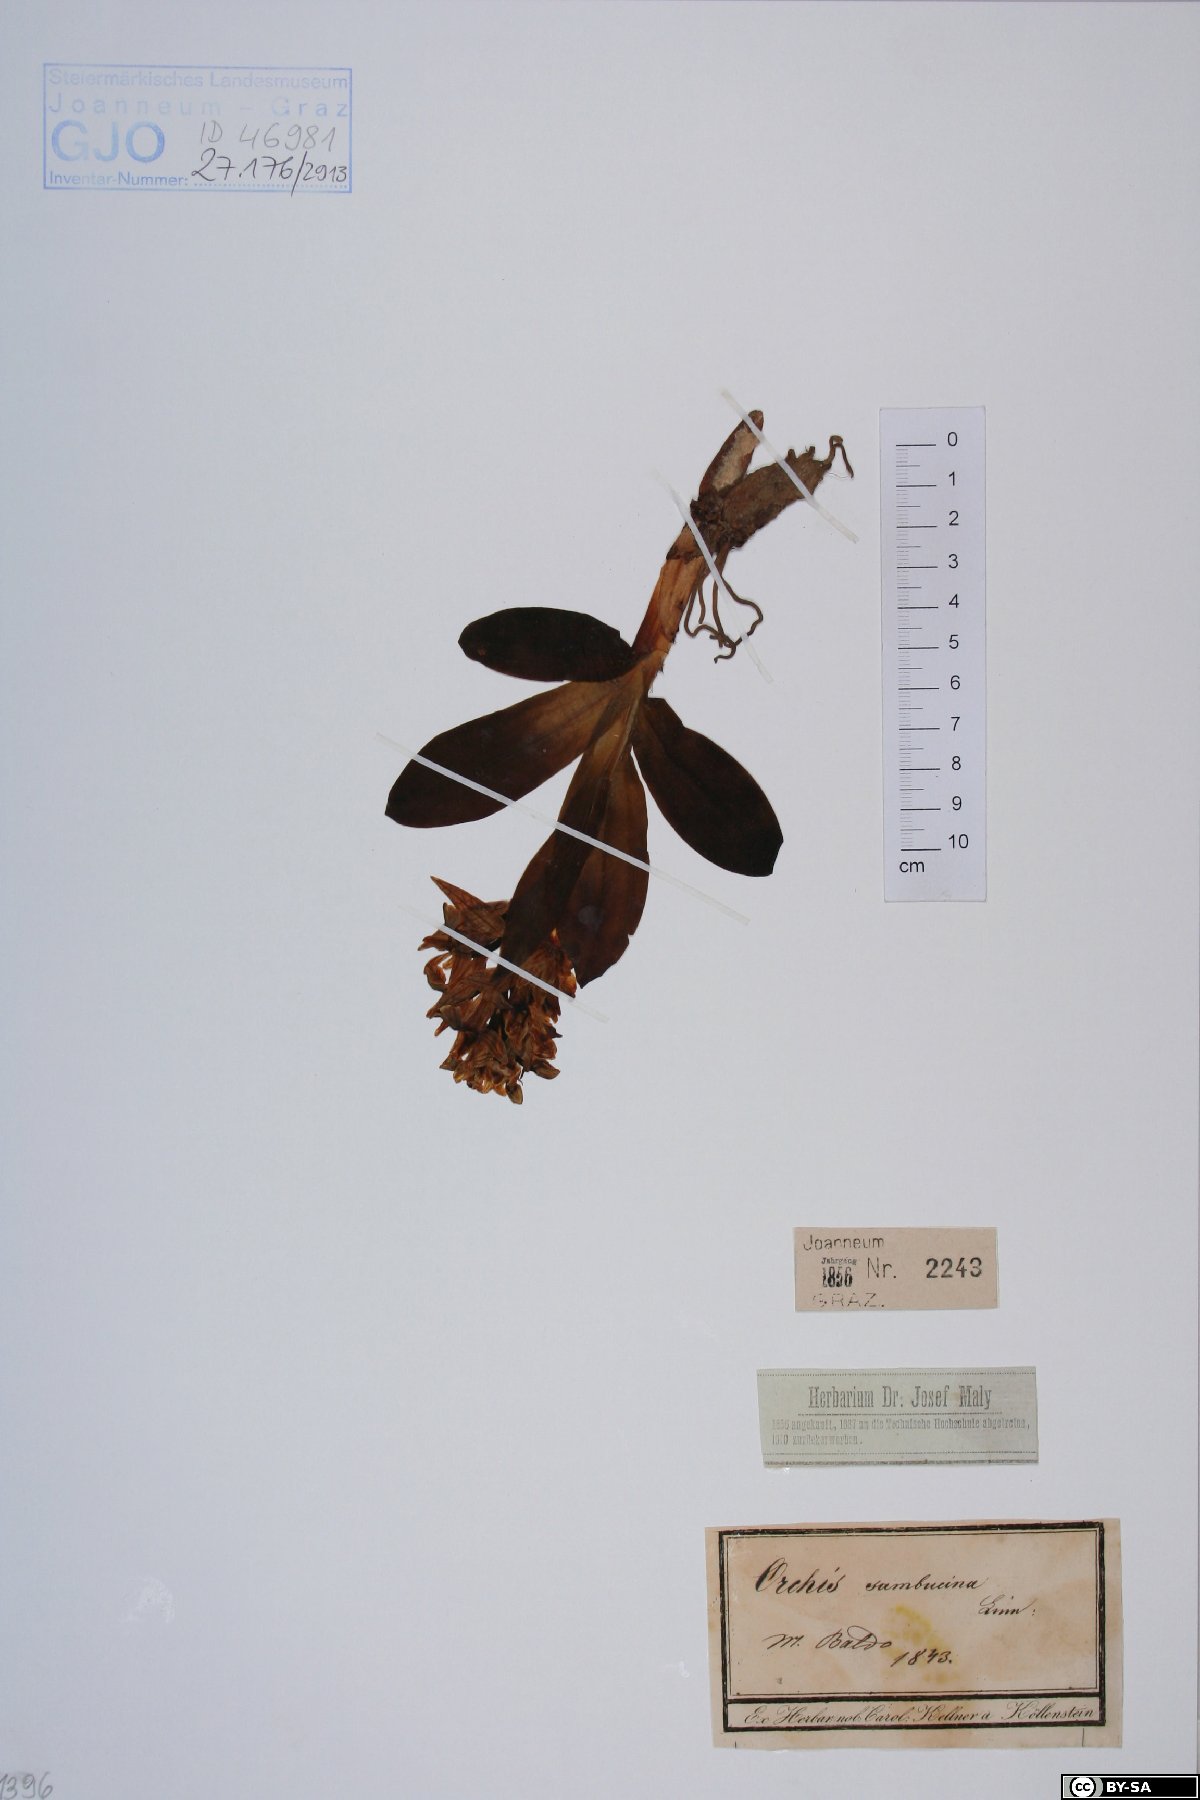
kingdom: Plantae
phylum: Tracheophyta
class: Liliopsida
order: Asparagales
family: Orchidaceae
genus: Dactylorhiza
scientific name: Dactylorhiza sambucina
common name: Elder-flowered orchid
